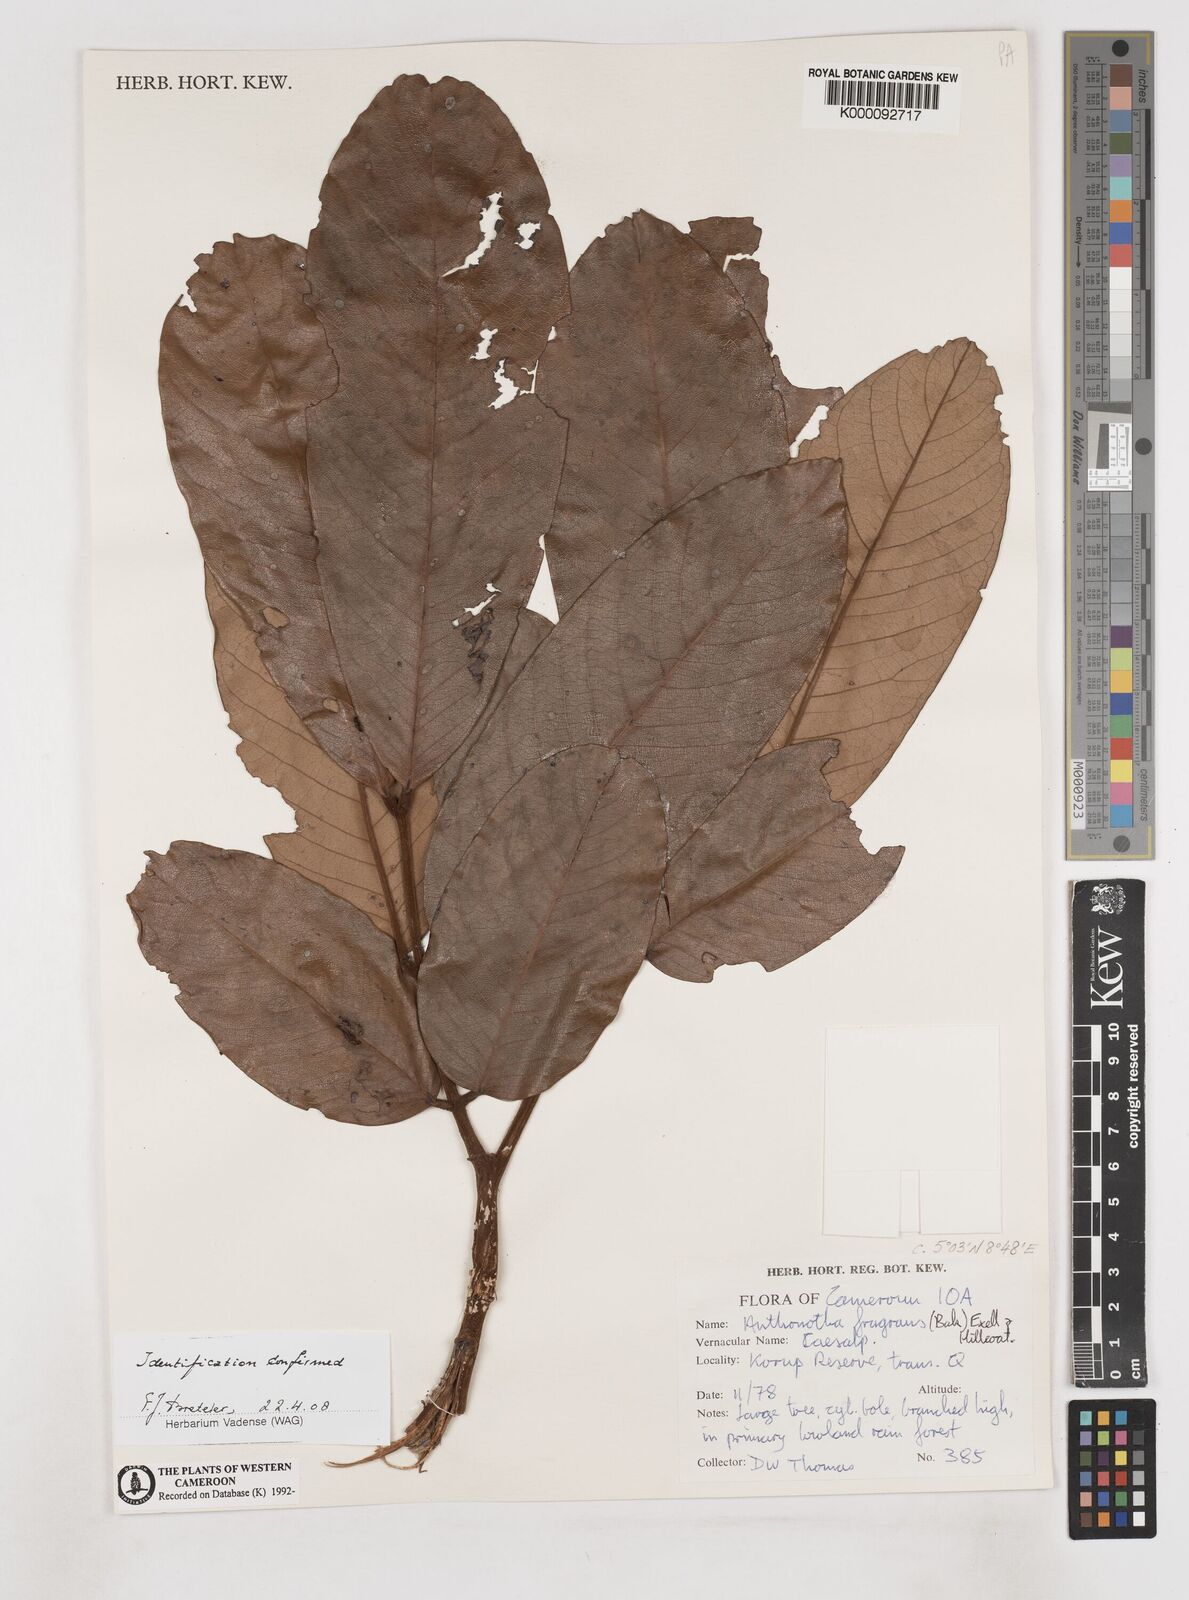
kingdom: Plantae
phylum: Tracheophyta
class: Magnoliopsida
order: Fabales
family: Fabaceae
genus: Anthonotha
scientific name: Anthonotha fragrans
